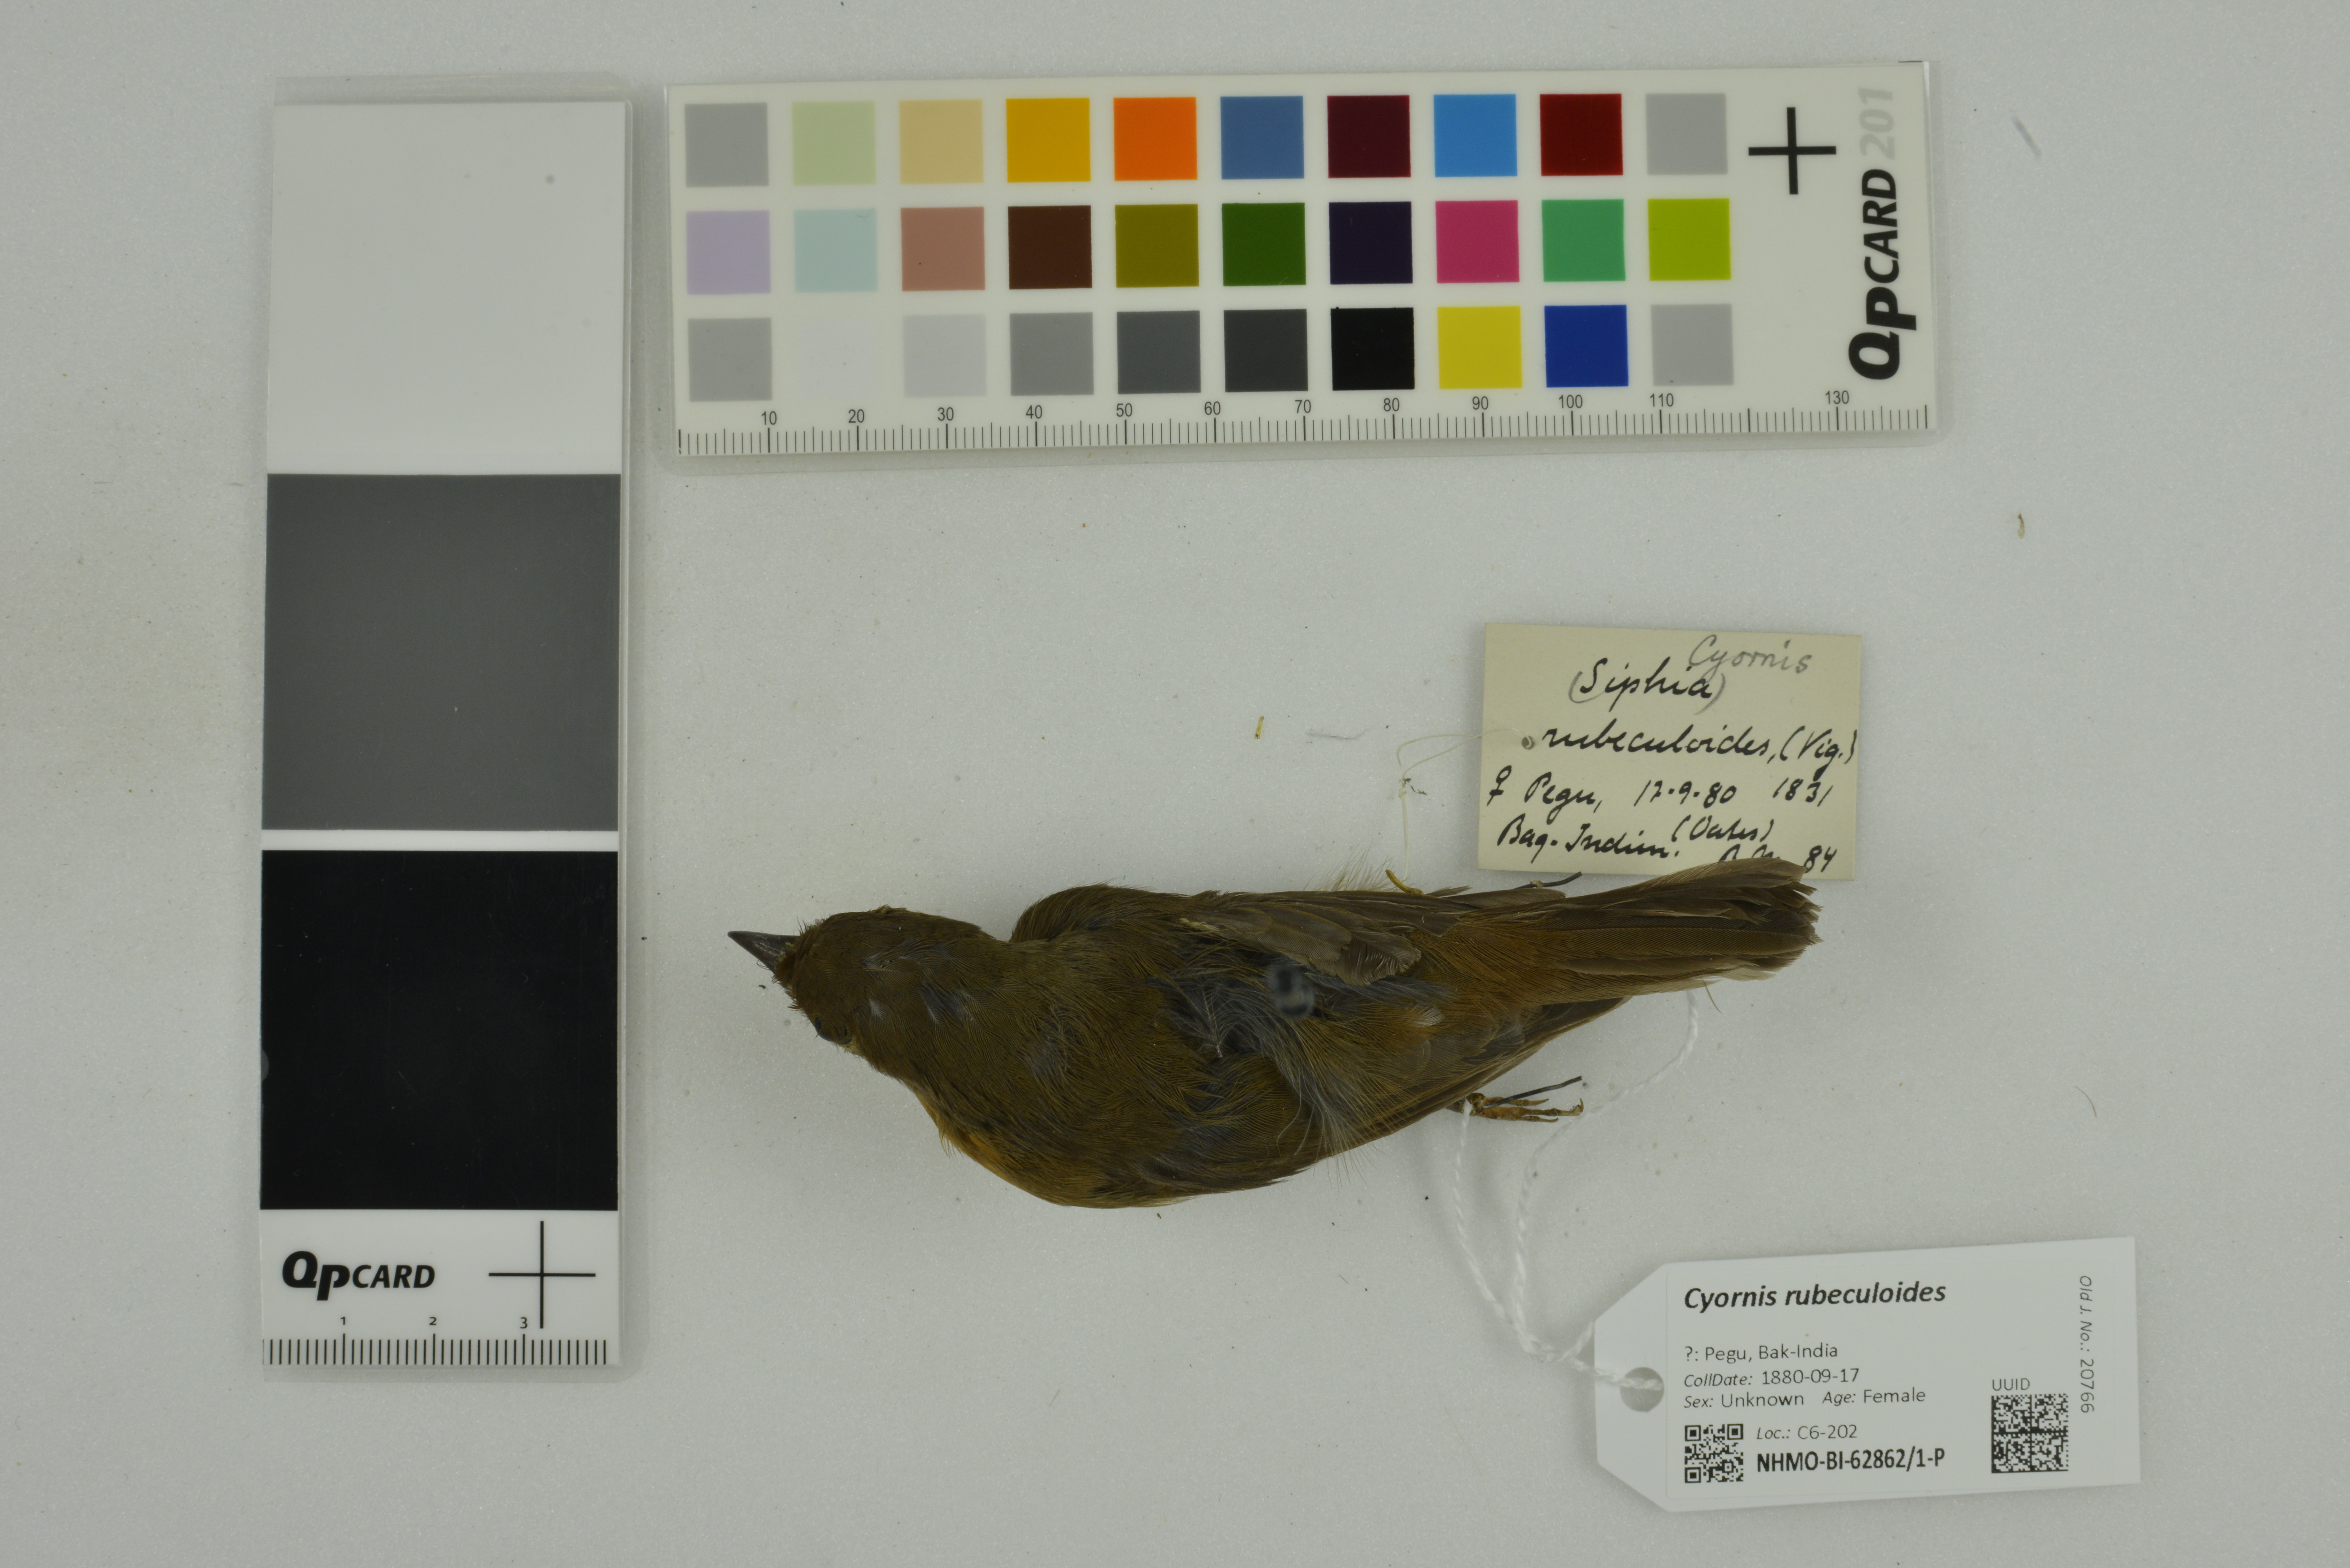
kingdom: Animalia
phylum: Chordata
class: Aves
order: Passeriformes
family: Muscicapidae
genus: Cyornis
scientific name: Cyornis rubeculoides
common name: Blue-throated blue flycatcher
